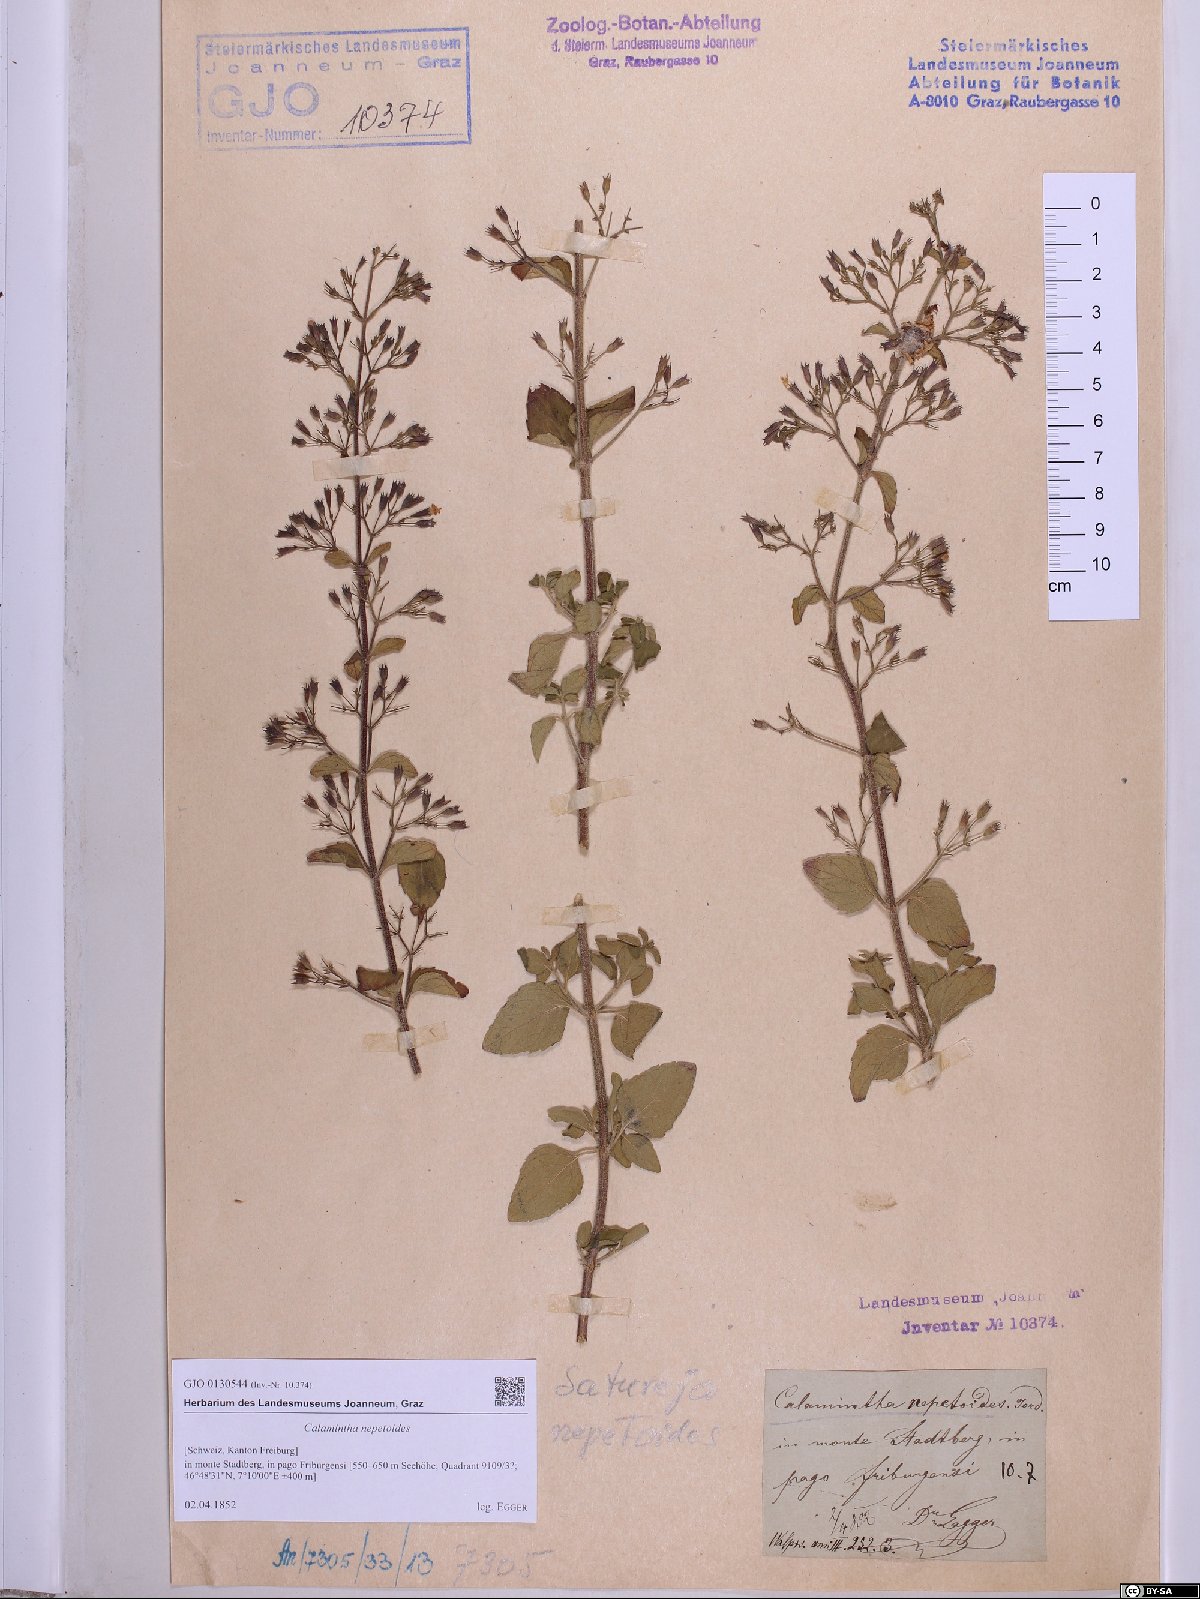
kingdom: Plantae
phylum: Tracheophyta
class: Magnoliopsida
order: Lamiales
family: Lamiaceae
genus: Clinopodium
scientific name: Clinopodium nepeta
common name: Lesser calamint
